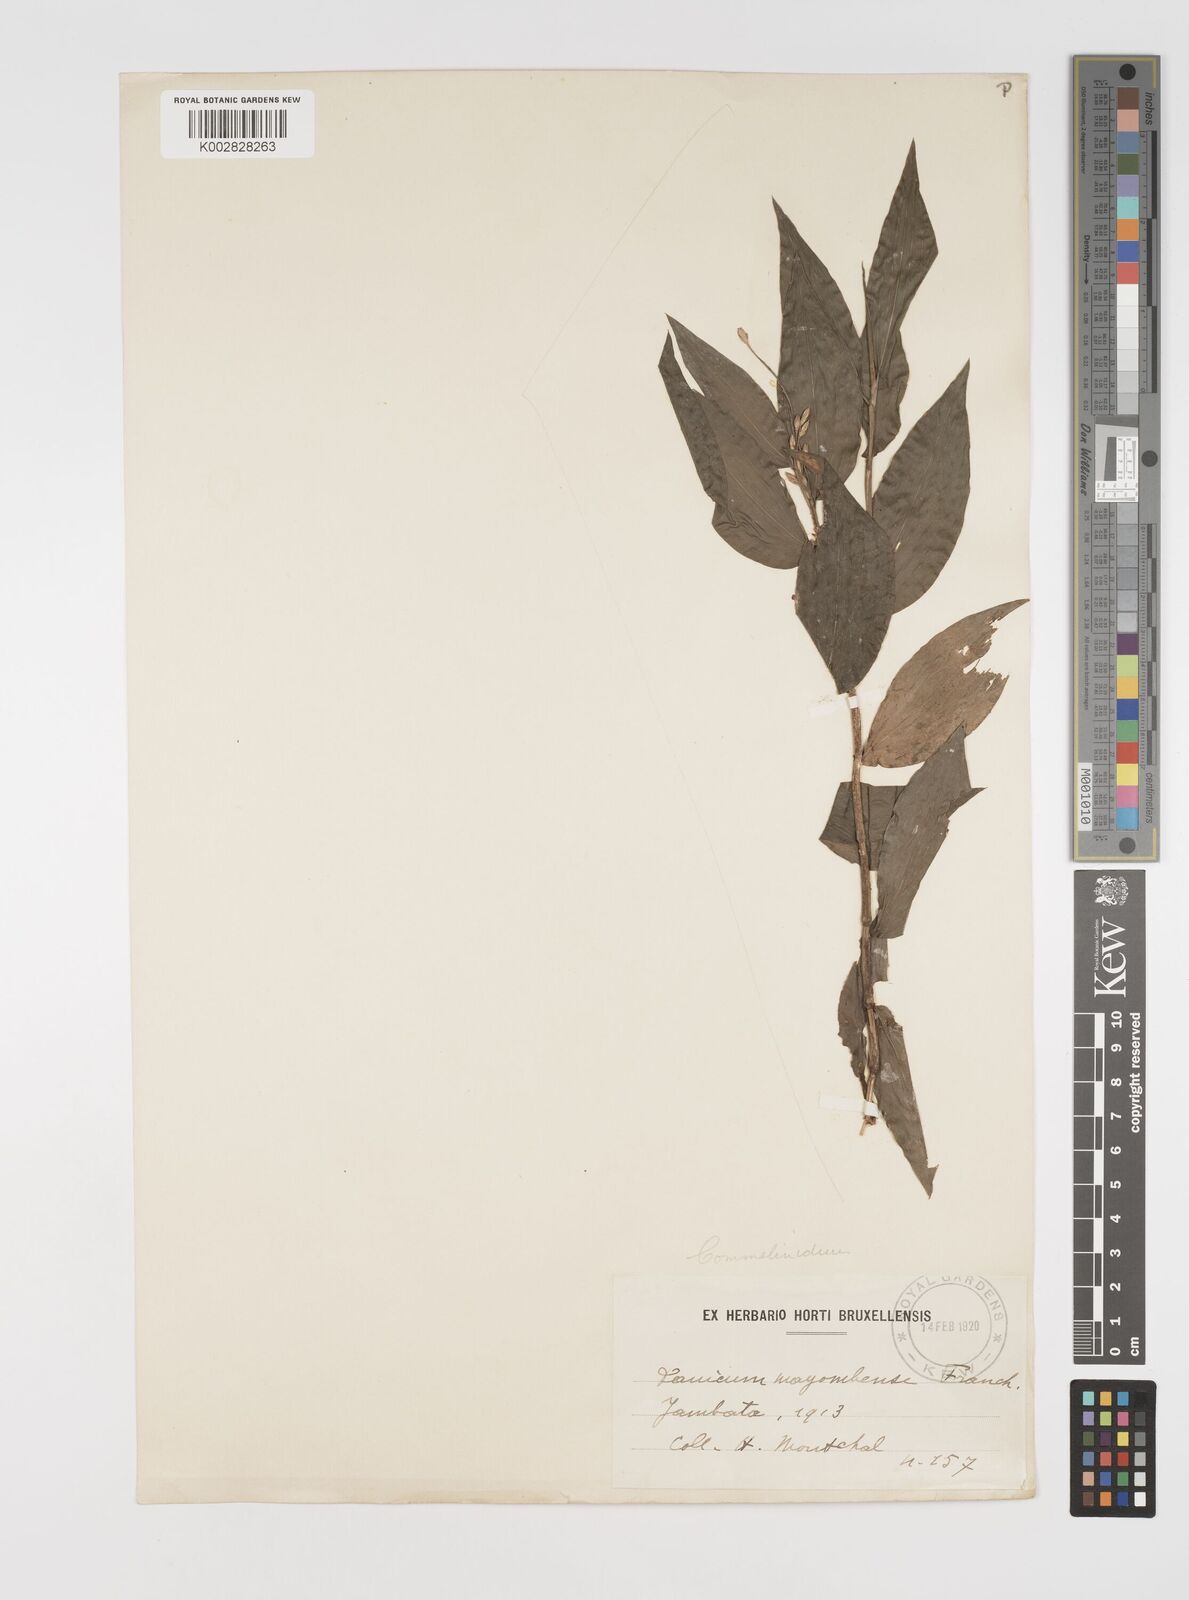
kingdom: Plantae
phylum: Tracheophyta
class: Liliopsida
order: Poales
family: Poaceae
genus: Acroceras
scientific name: Acroceras gabunense
